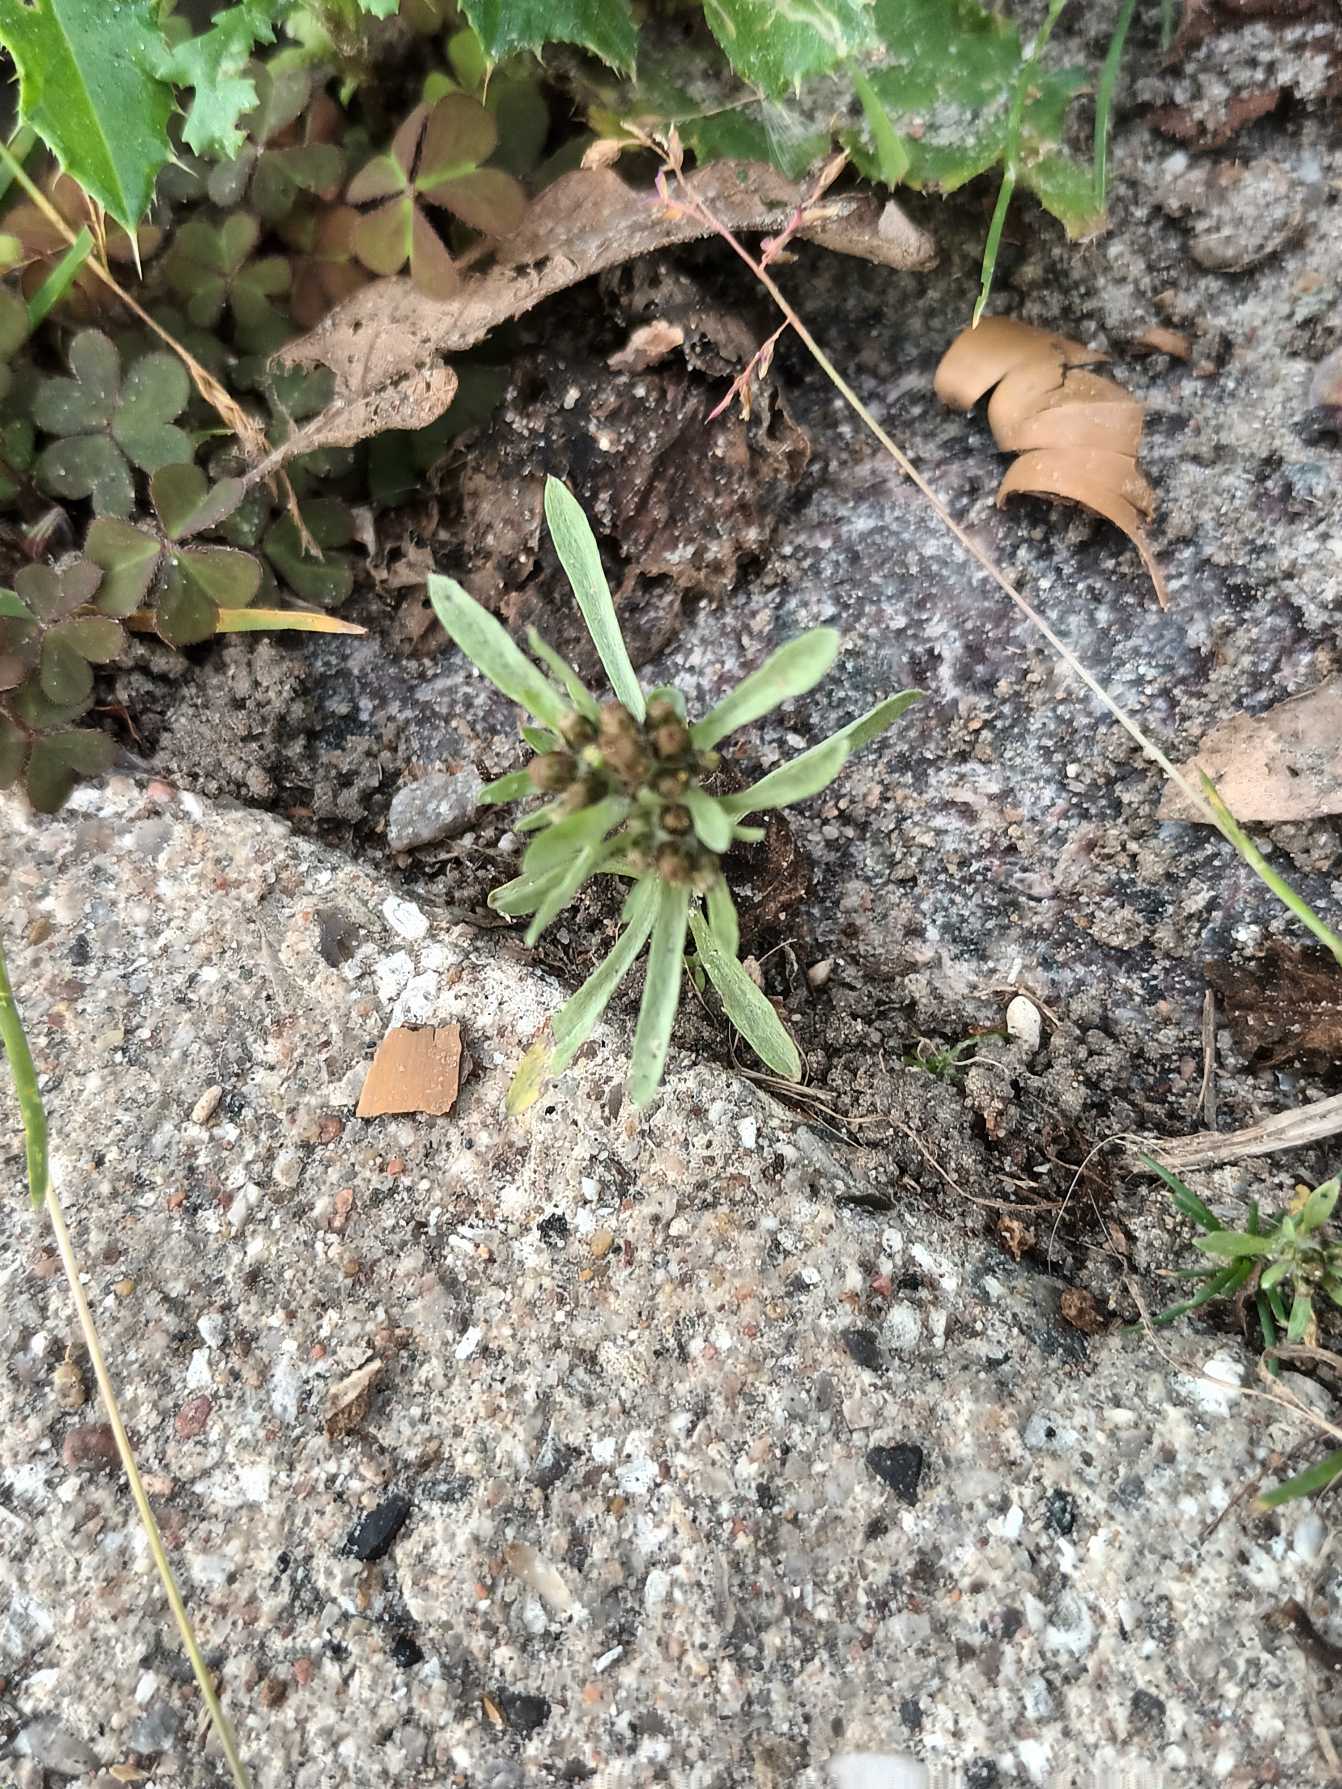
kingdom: Plantae
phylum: Tracheophyta
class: Magnoliopsida
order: Asterales
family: Asteraceae
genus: Gnaphalium
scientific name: Gnaphalium uliginosum
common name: Sump-evighedsblomst
